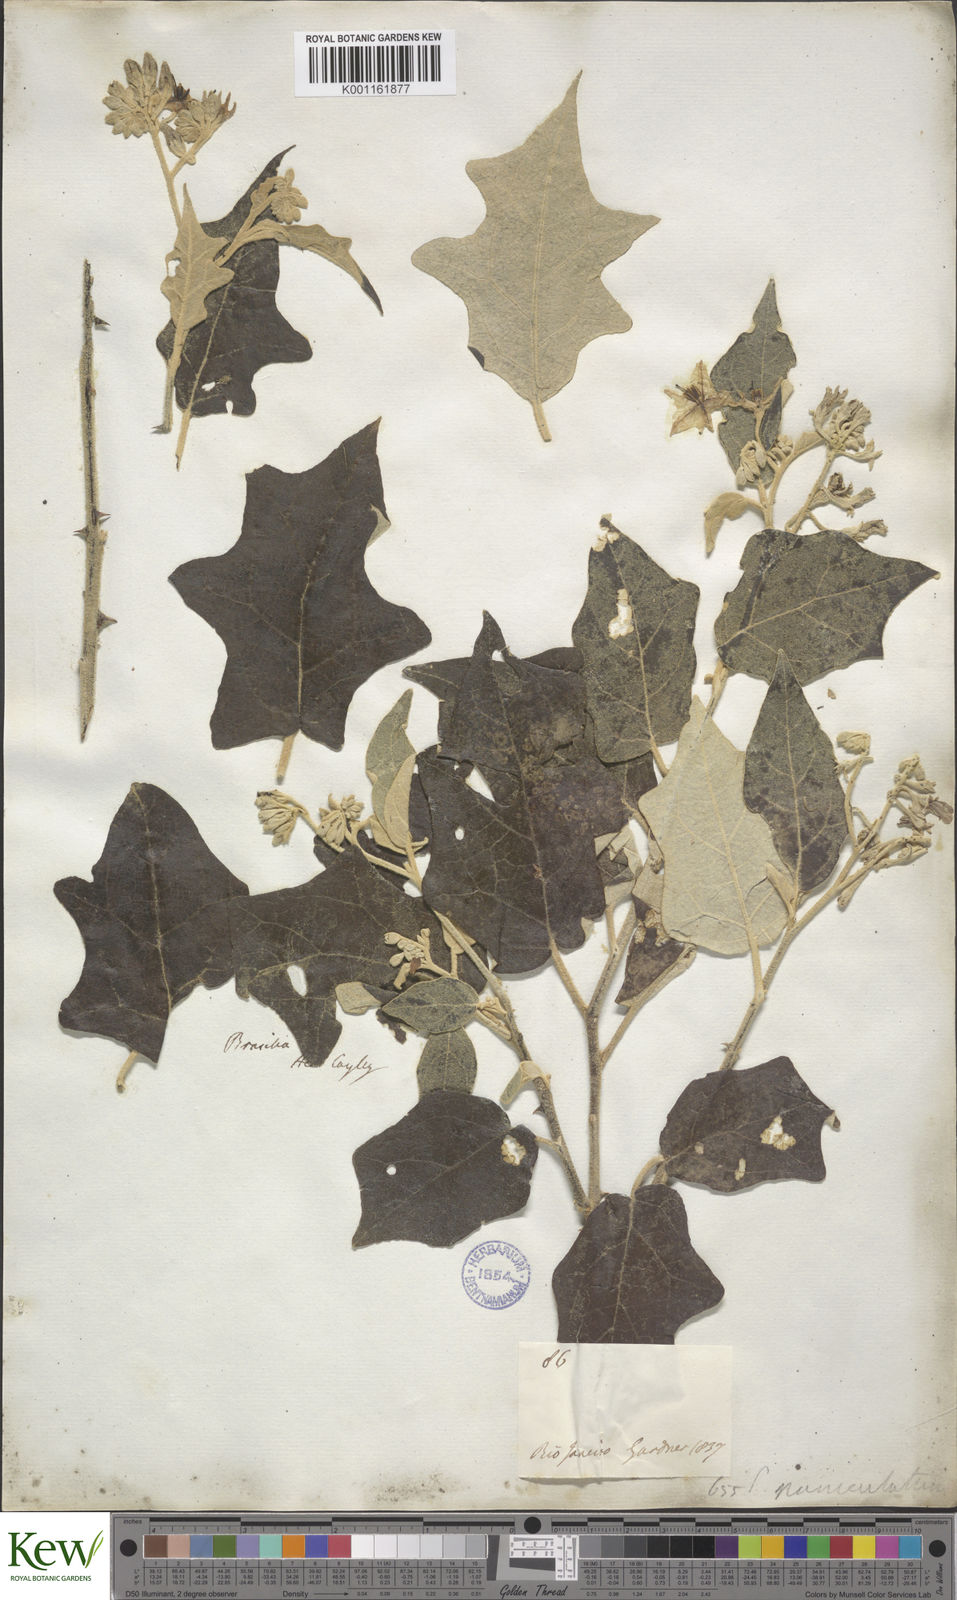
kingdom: Plantae
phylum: Tracheophyta
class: Magnoliopsida
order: Solanales
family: Solanaceae
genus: Solanum
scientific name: Solanum paniculatum
